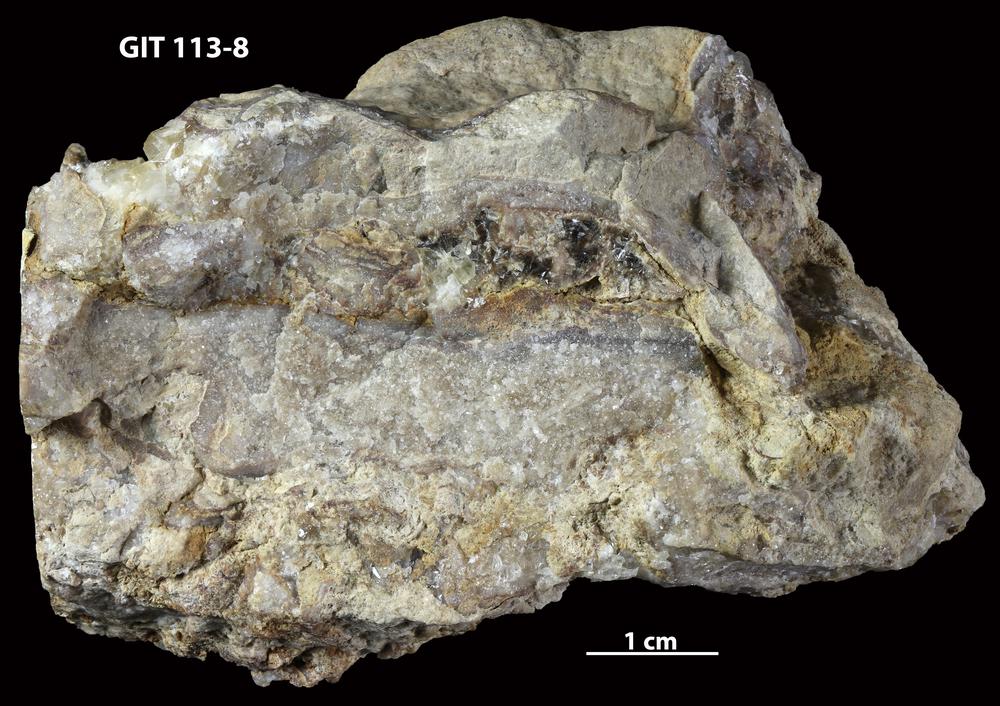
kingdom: Animalia
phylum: Porifera
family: Stylostromatidae
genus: Pachystylostroma
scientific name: Pachystylostroma fragosum
